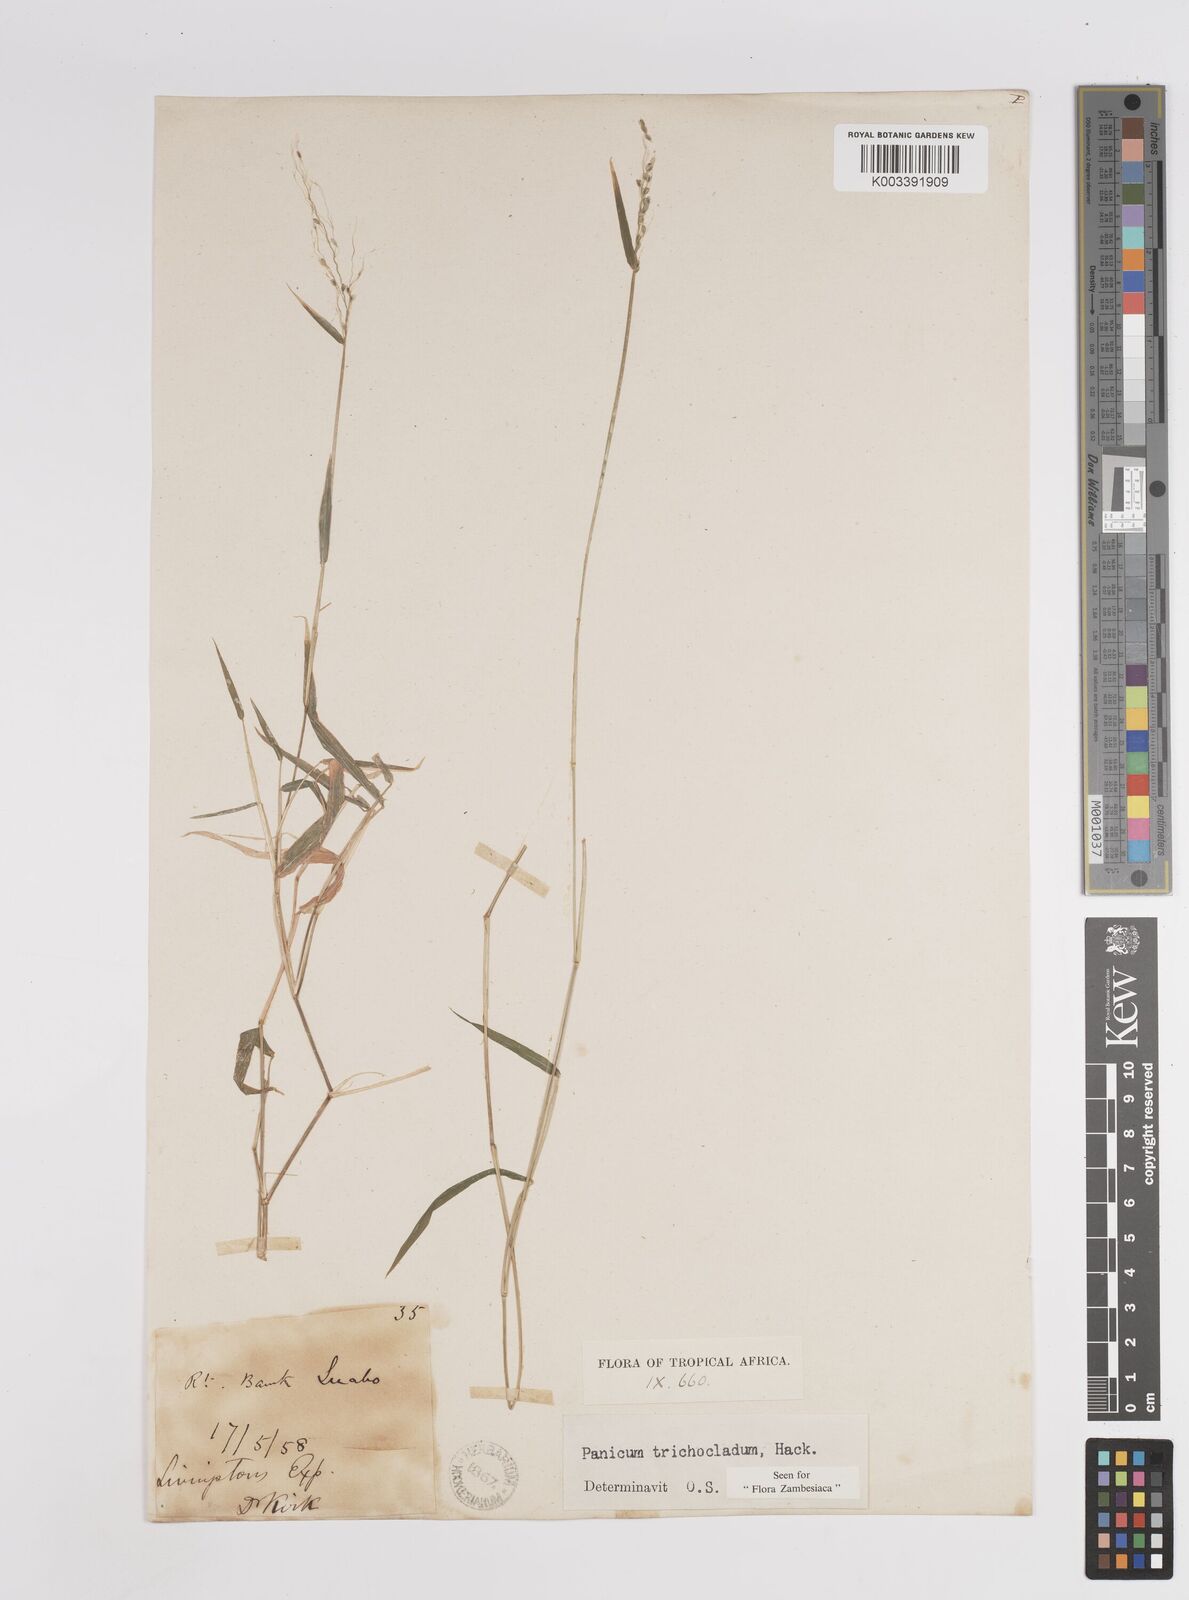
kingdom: Plantae
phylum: Tracheophyta
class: Liliopsida
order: Poales
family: Poaceae
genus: Panicum
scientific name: Panicum trichocladum
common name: Donkey grass
